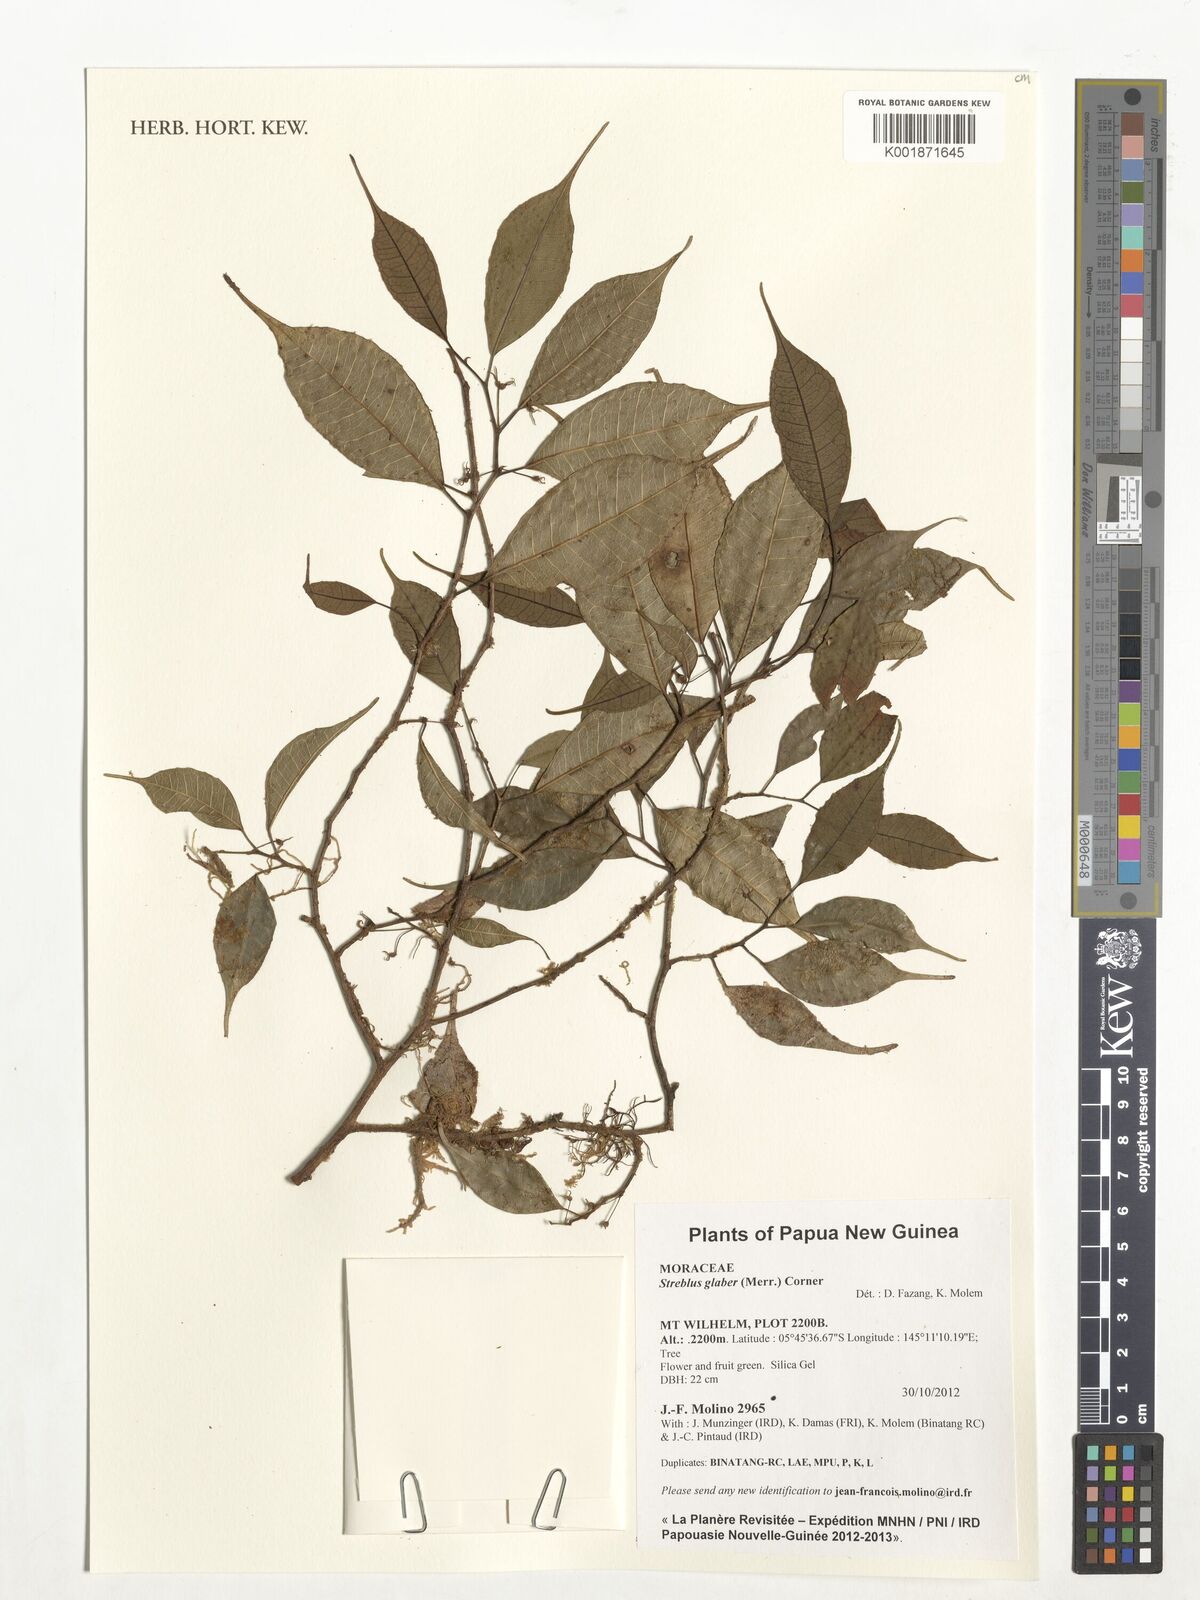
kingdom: Plantae
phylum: Tracheophyta
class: Magnoliopsida
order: Rosales
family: Moraceae
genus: Paratrophis
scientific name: Paratrophis glabra
